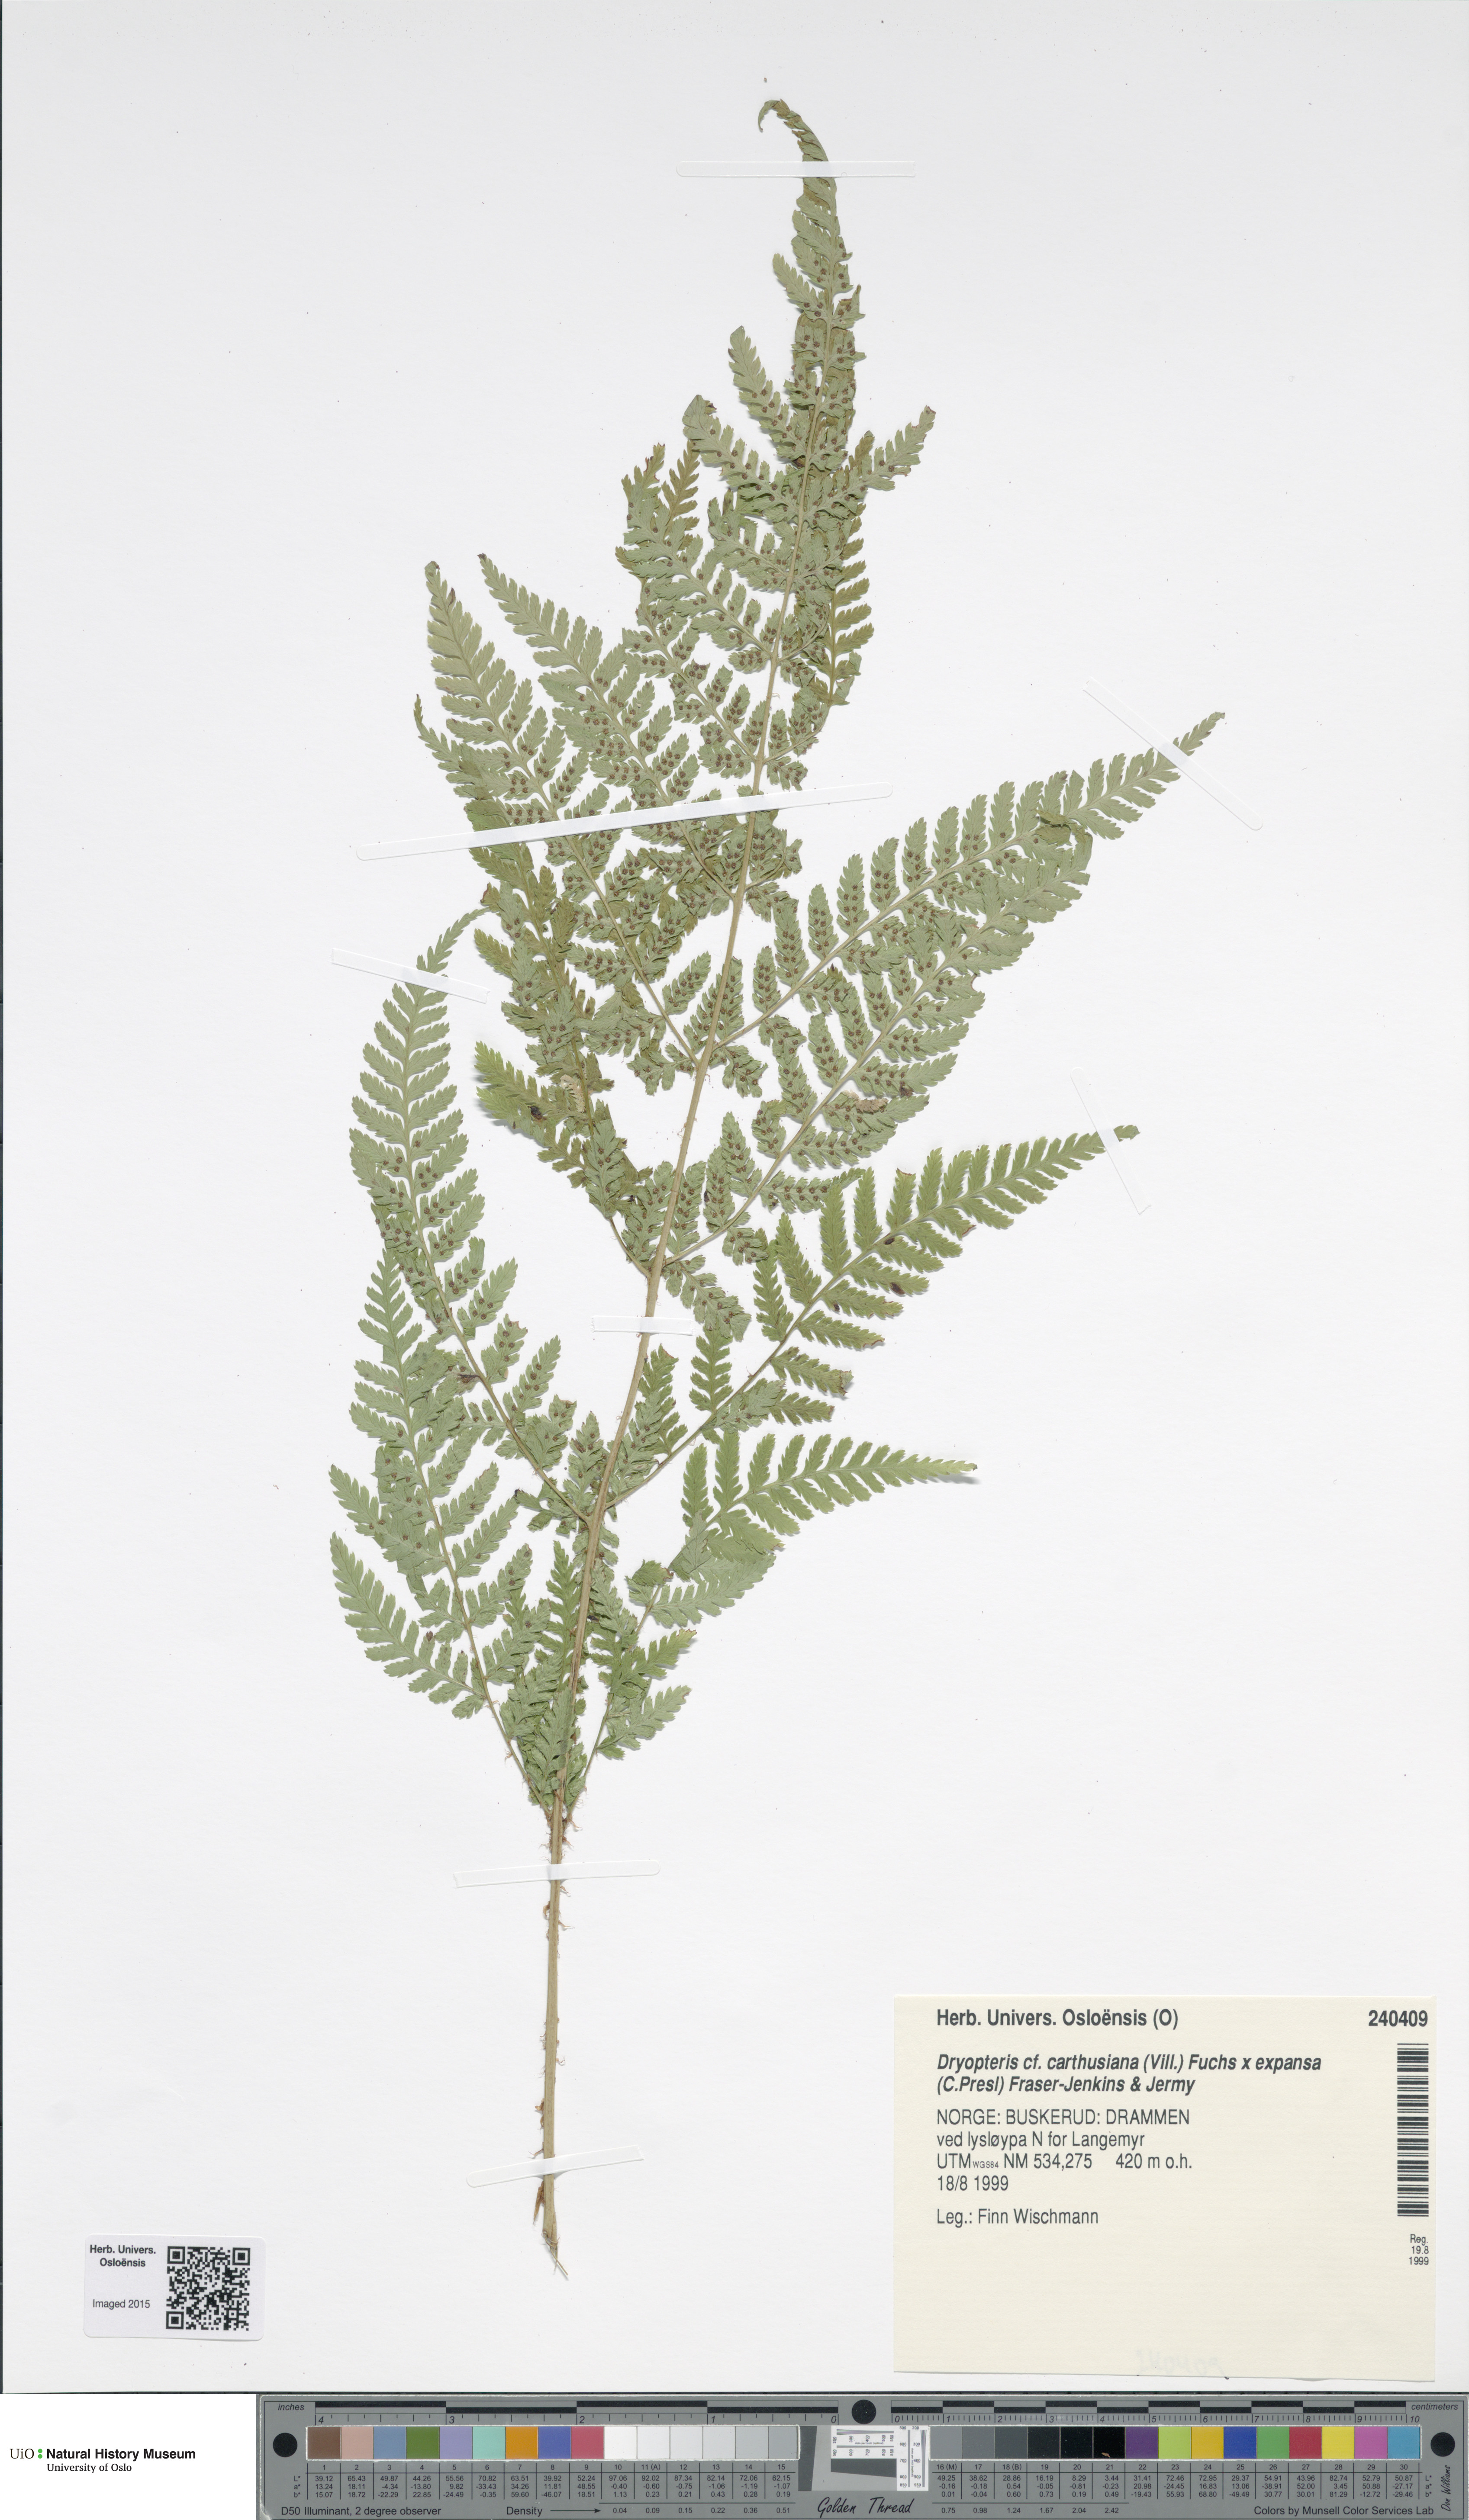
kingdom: Plantae
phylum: Tracheophyta
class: Polypodiopsida
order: Polypodiales
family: Dryopteridaceae
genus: Dryopteris
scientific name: Dryopteris
